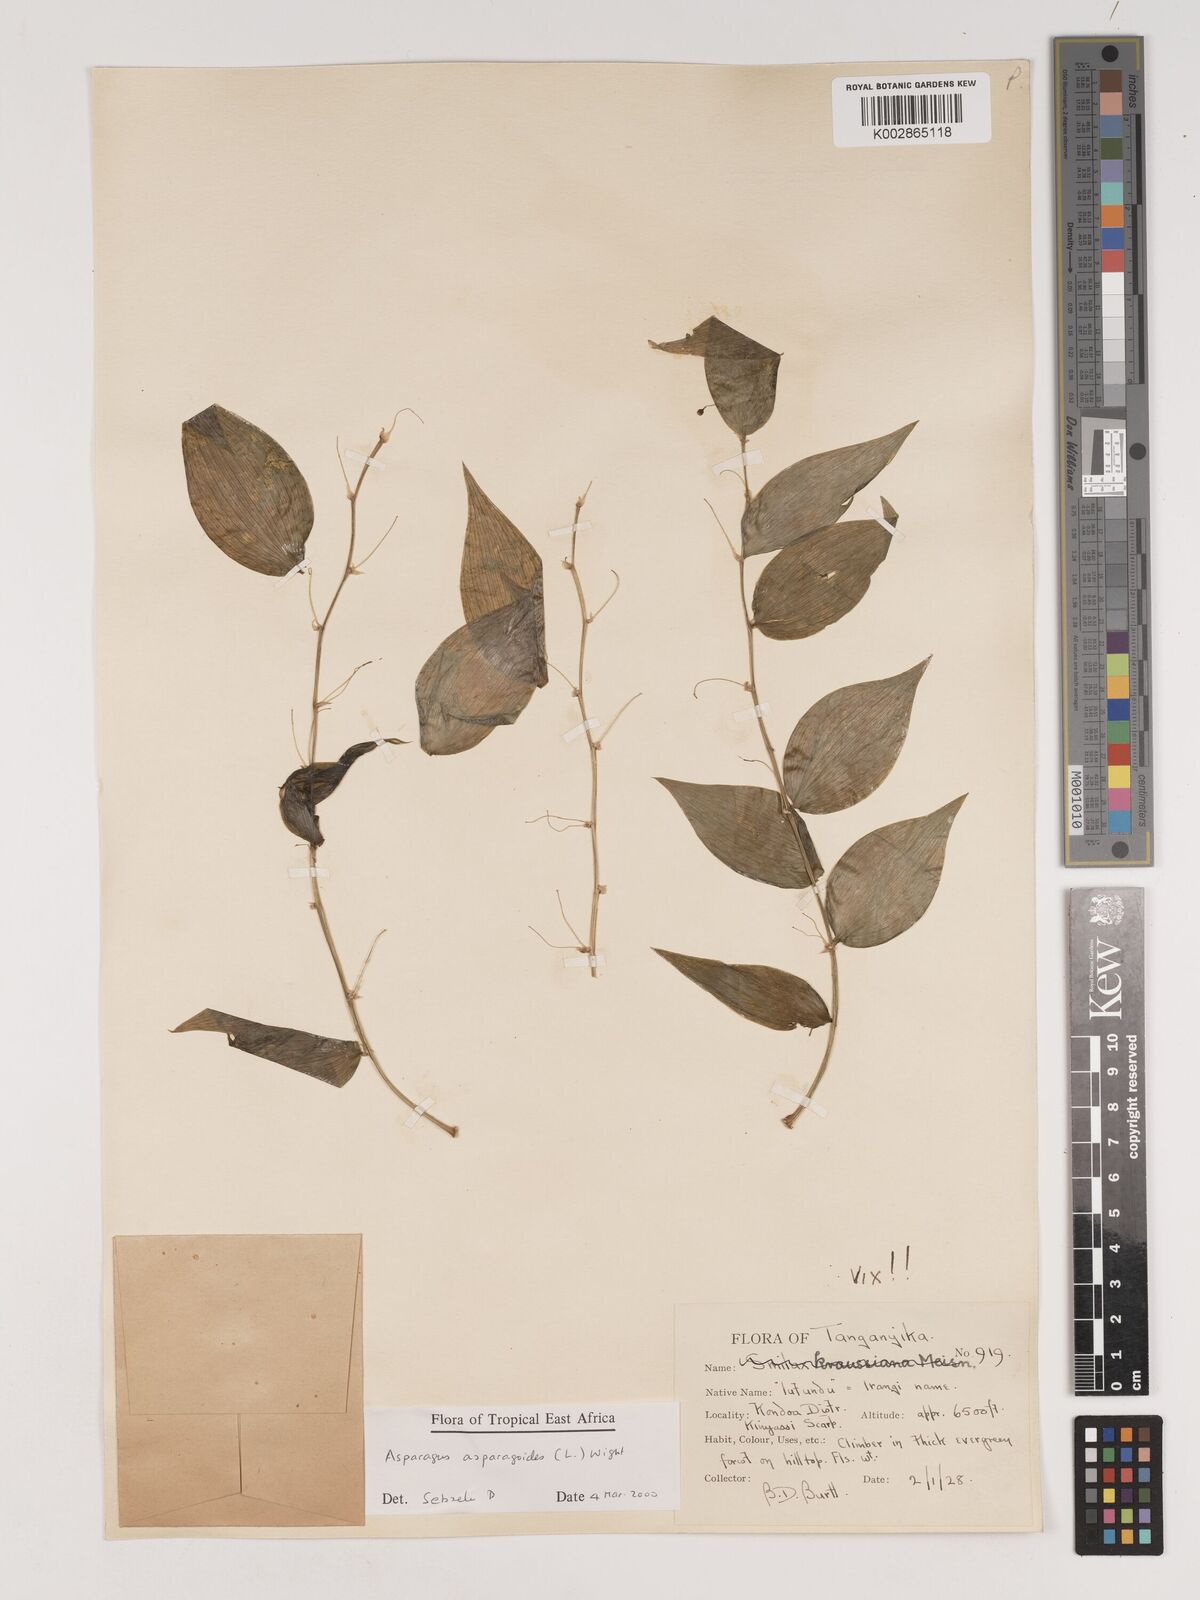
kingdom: Plantae
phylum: Tracheophyta
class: Liliopsida
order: Asparagales
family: Asparagaceae
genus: Asparagus
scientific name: Asparagus asparagoides
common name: African asparagus fern
